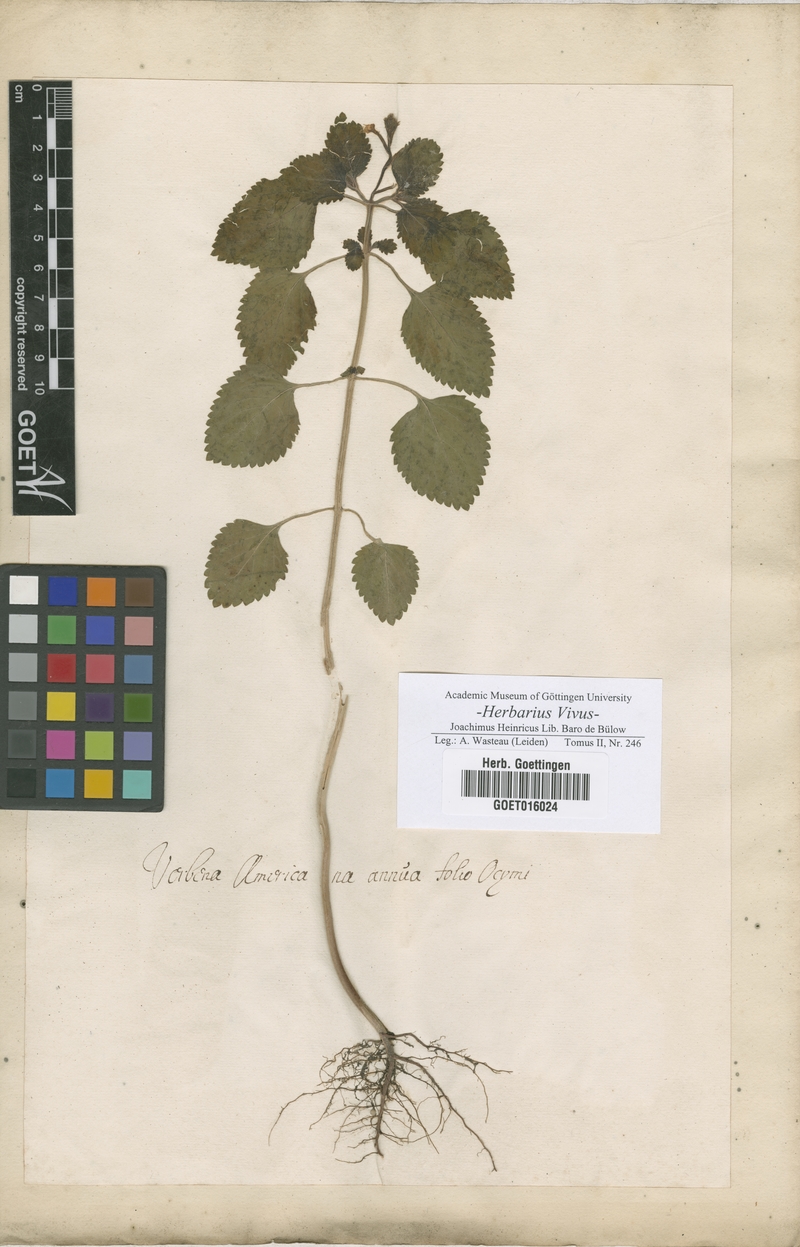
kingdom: Plantae
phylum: Tracheophyta
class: Magnoliopsida
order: Lamiales
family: Verbenaceae
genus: Verbena
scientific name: Verbena
